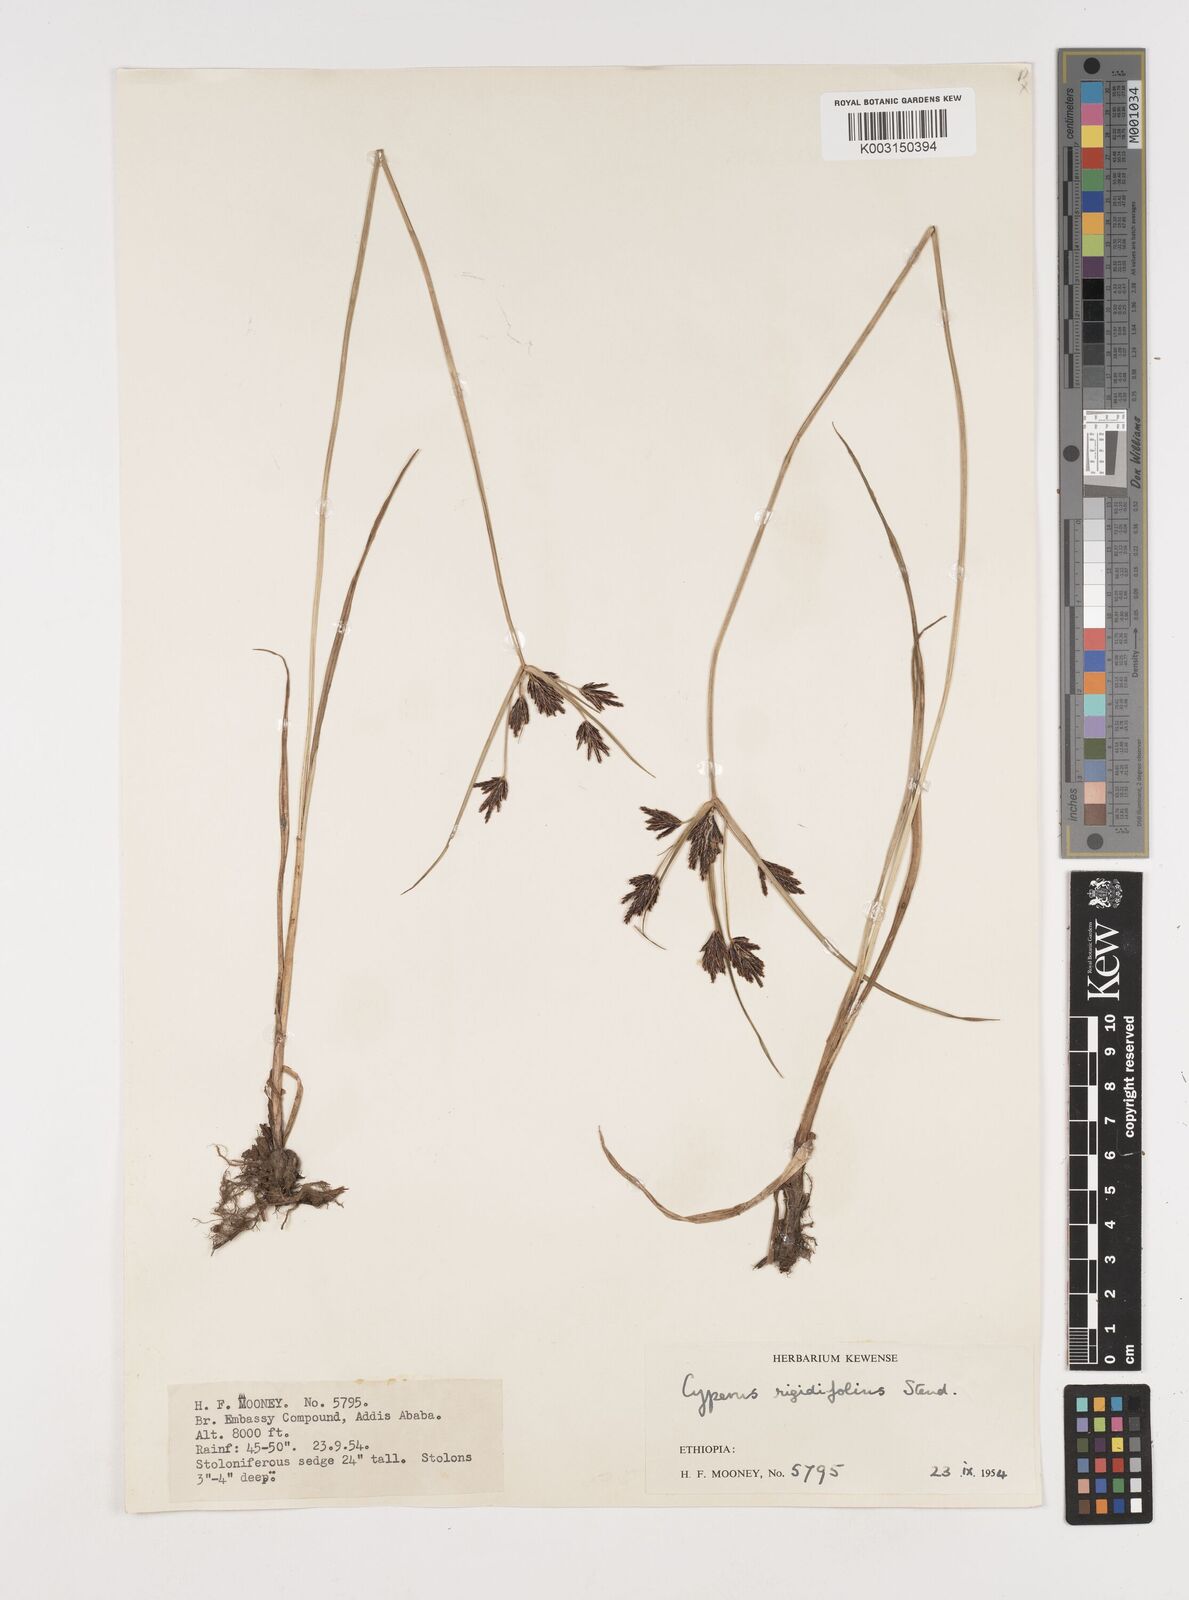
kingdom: Plantae
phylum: Tracheophyta
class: Liliopsida
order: Poales
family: Cyperaceae
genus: Cyperus
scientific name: Cyperus rigidifolius
